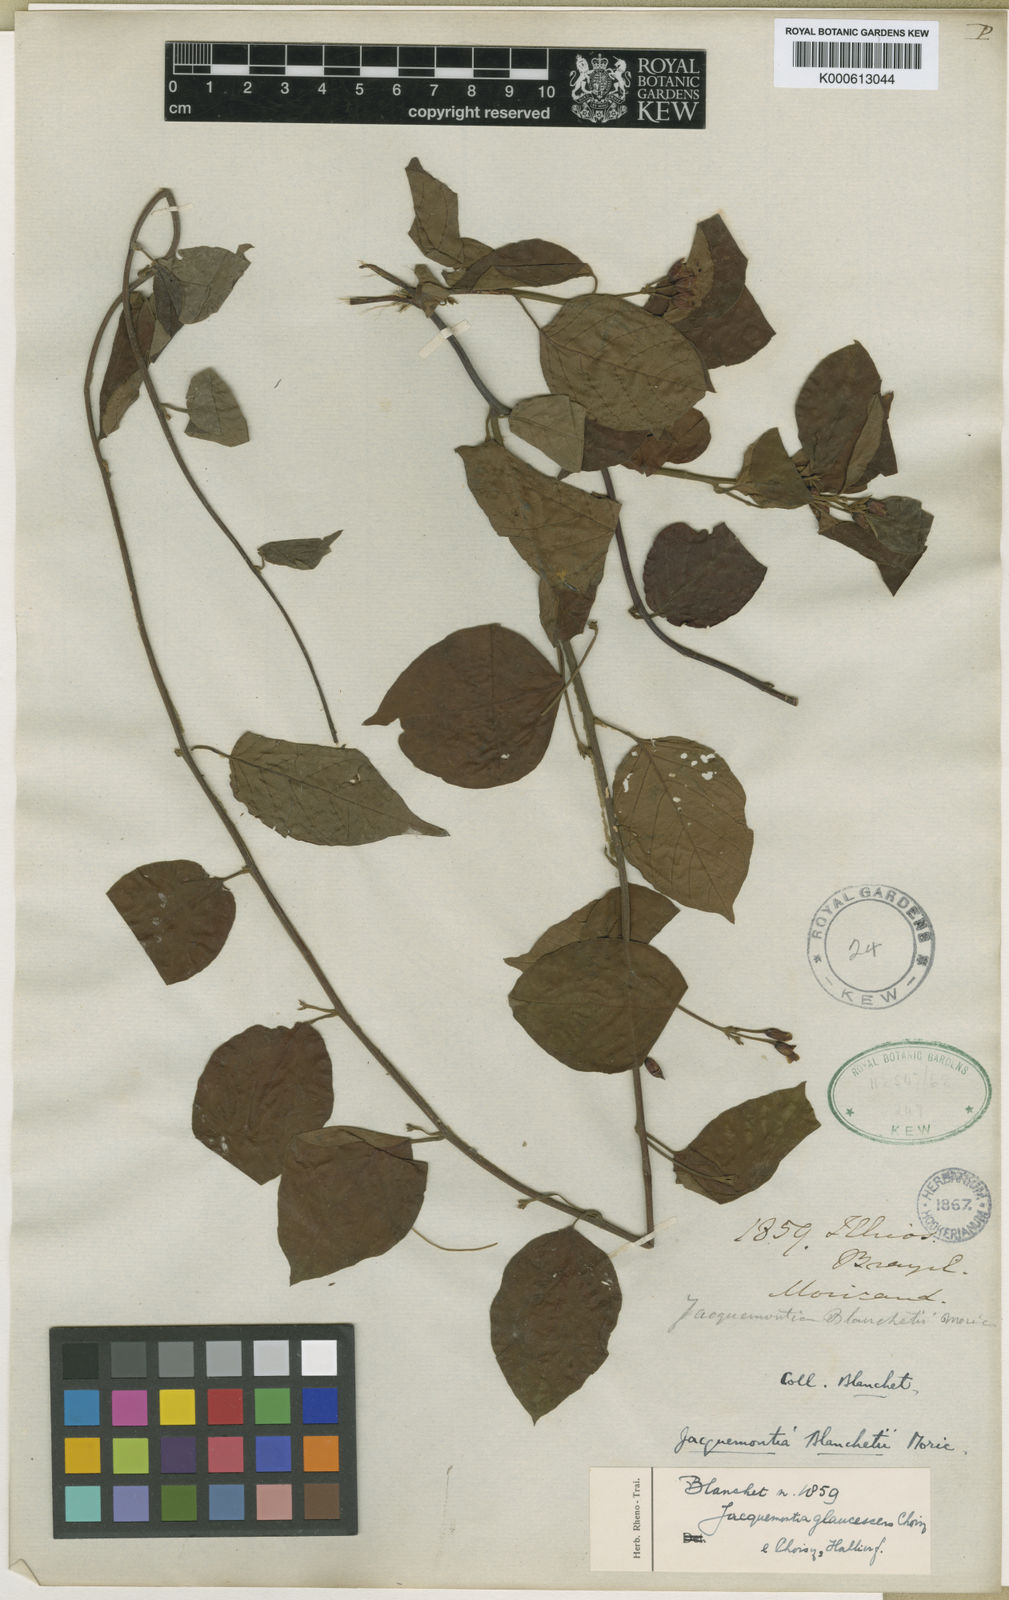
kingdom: Plantae
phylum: Tracheophyta
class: Magnoliopsida
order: Solanales
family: Convolvulaceae
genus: Jacquemontia
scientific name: Jacquemontia glaucescens
